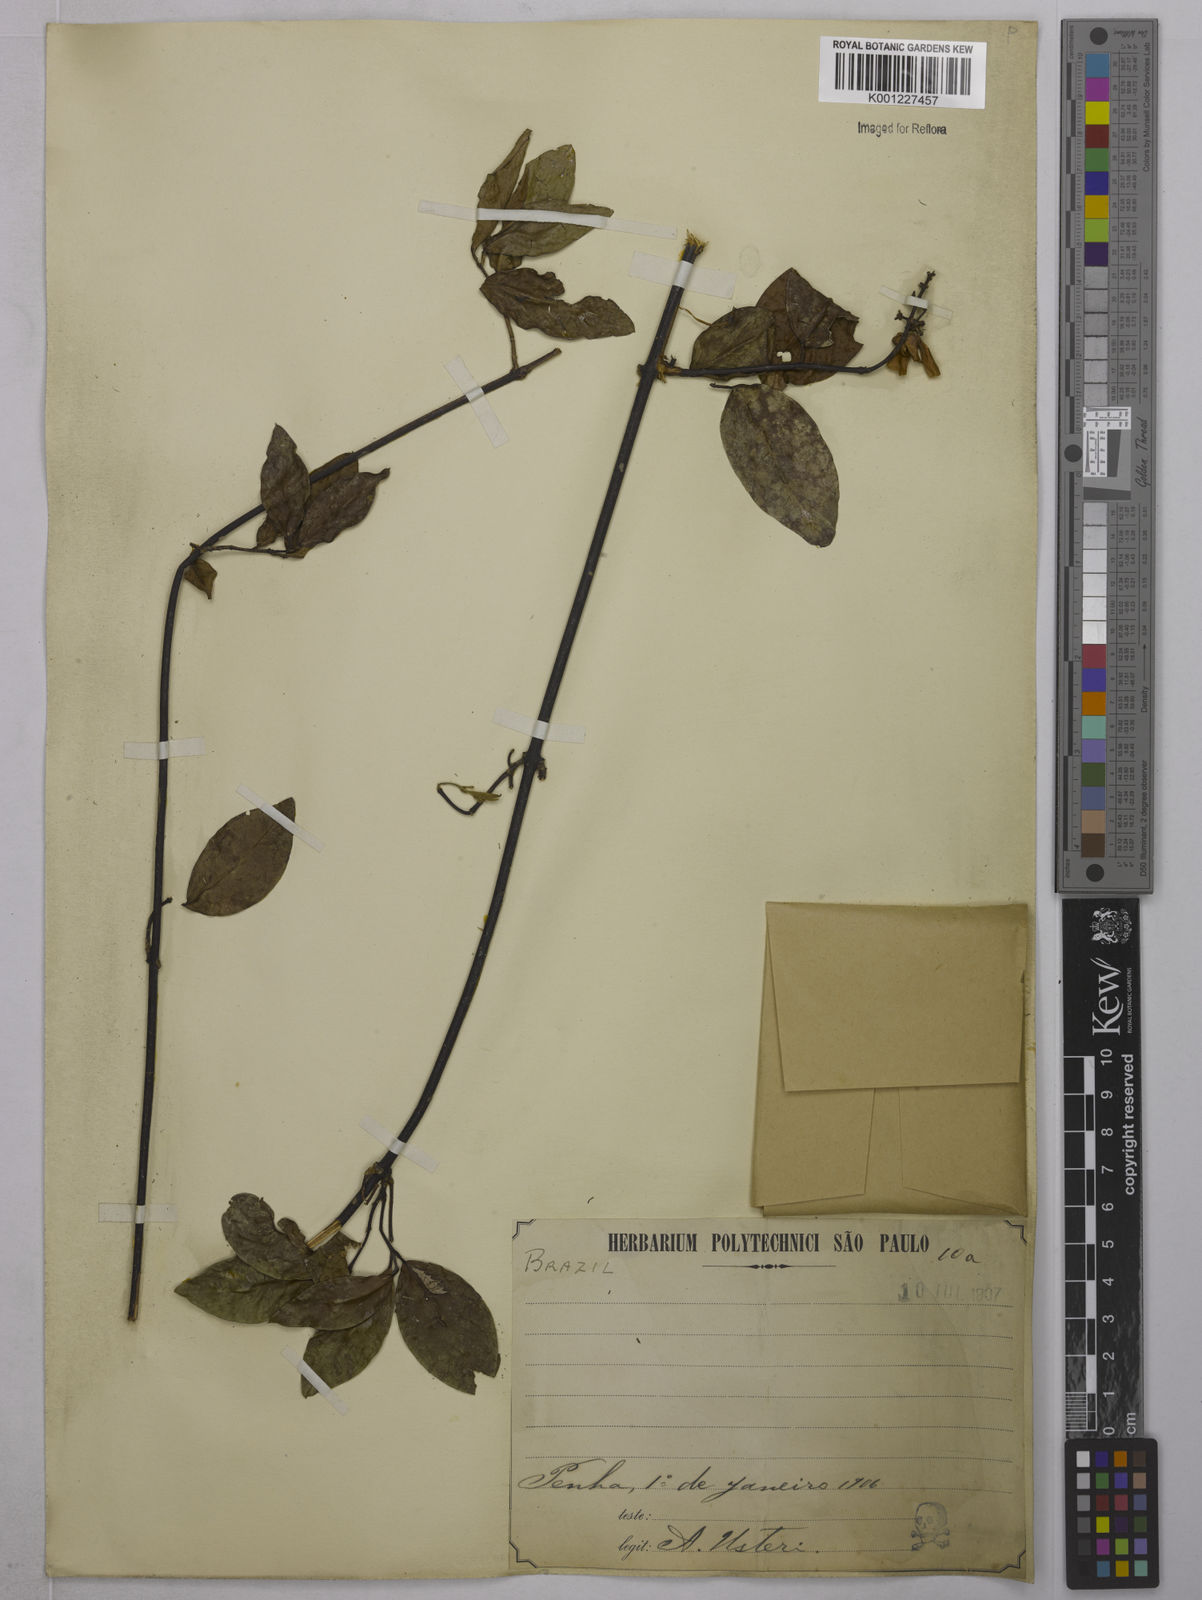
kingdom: Plantae
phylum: Tracheophyta
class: Magnoliopsida
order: Malpighiales
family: Malpighiaceae
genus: Tetrapterys
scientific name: Tetrapterys
